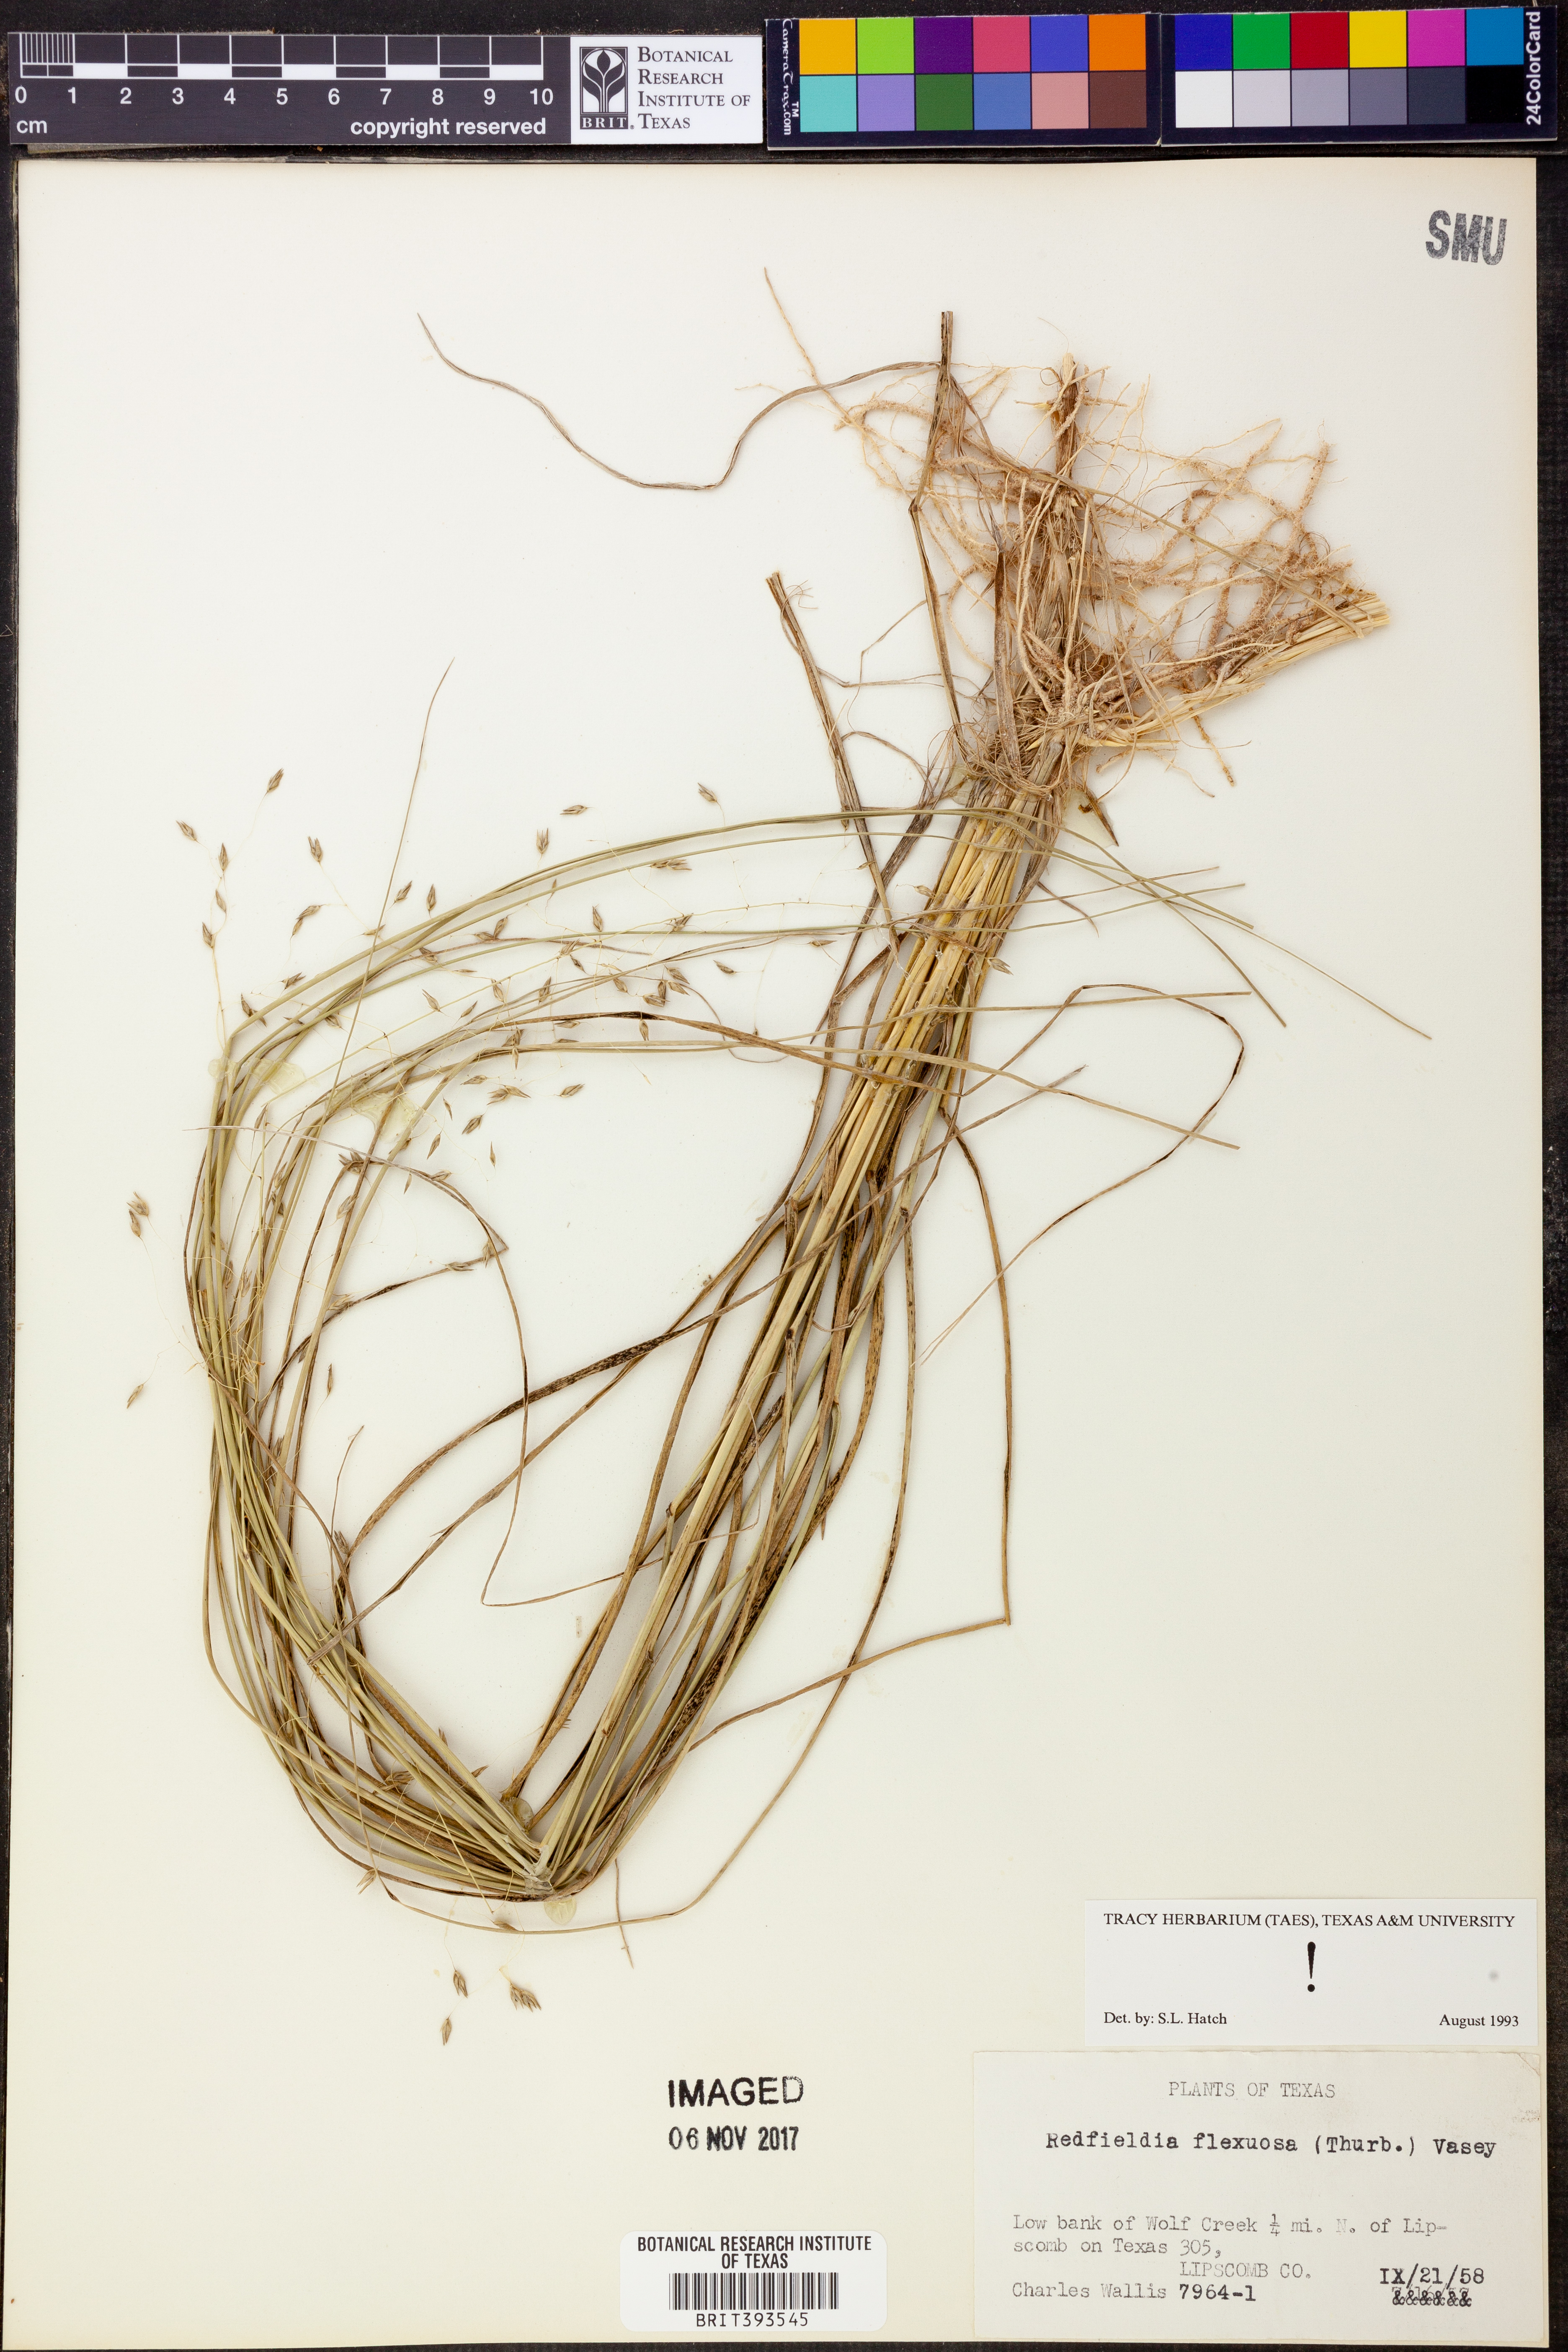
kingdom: Plantae
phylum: Tracheophyta
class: Liliopsida
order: Poales
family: Poaceae
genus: Muhlenbergia
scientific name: Muhlenbergia multiflora
